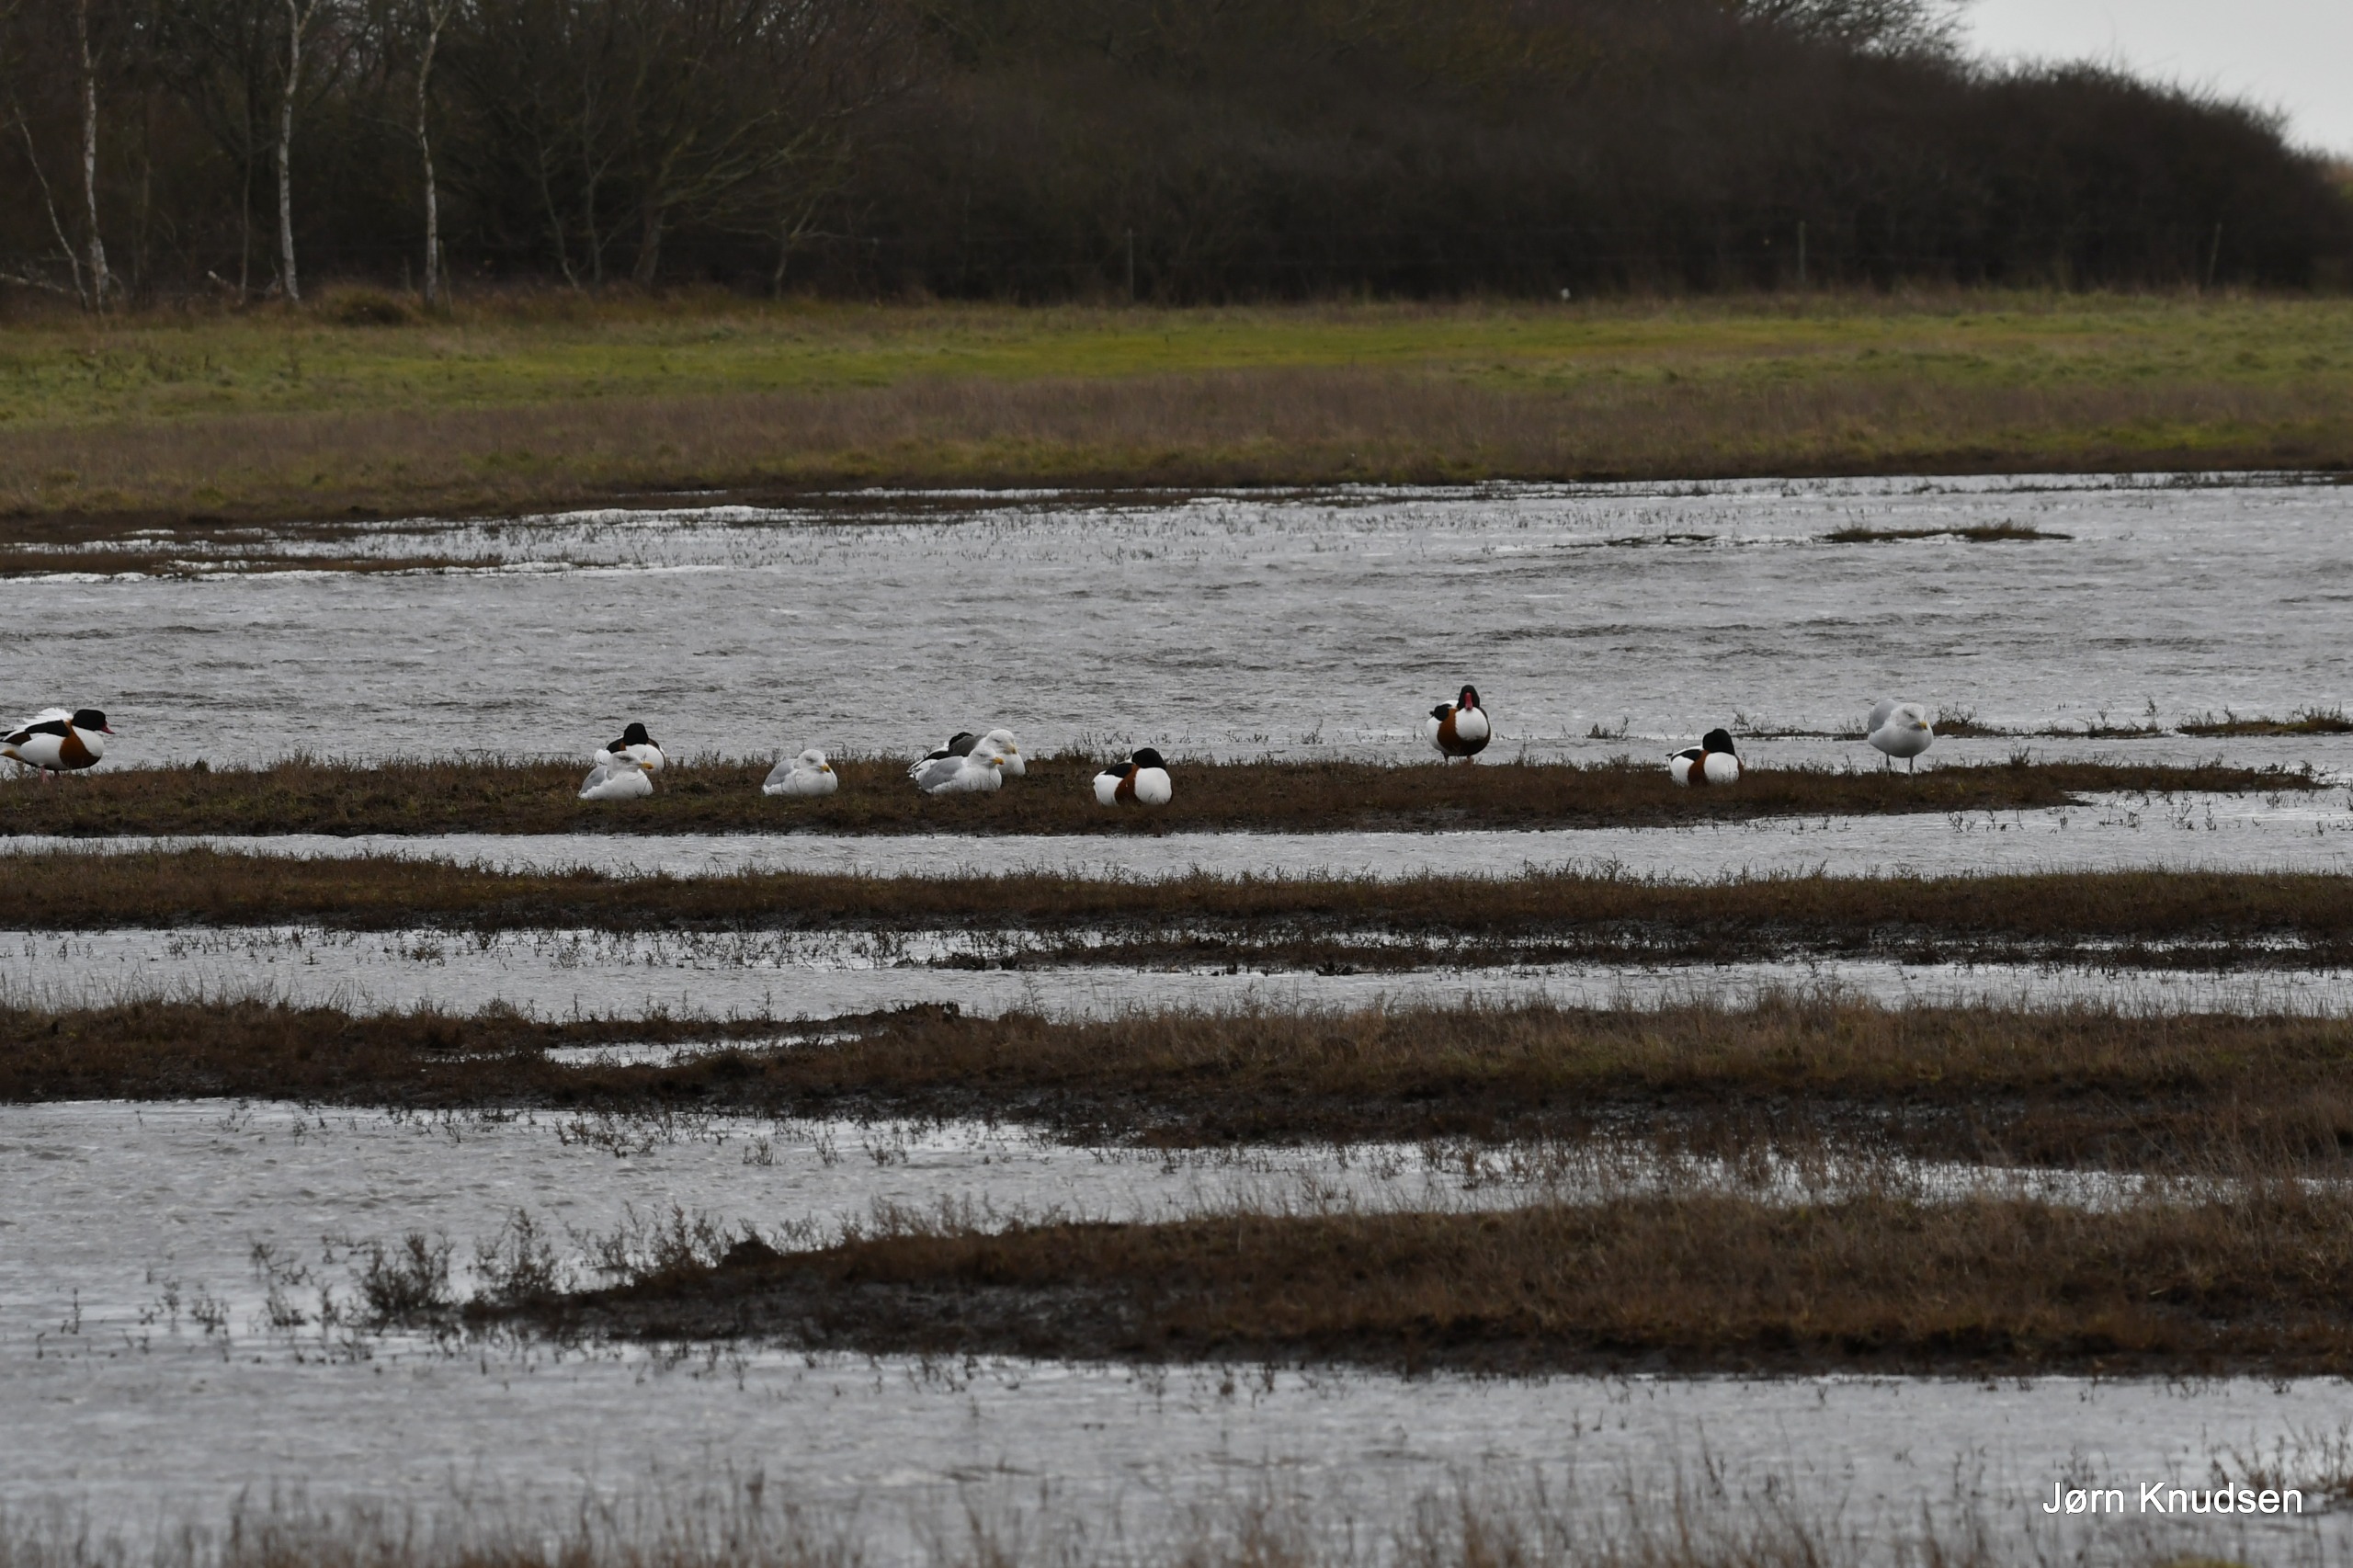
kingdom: Animalia
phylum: Chordata
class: Aves
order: Anseriformes
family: Anatidae
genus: Tadorna
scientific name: Tadorna tadorna
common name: Gravand
